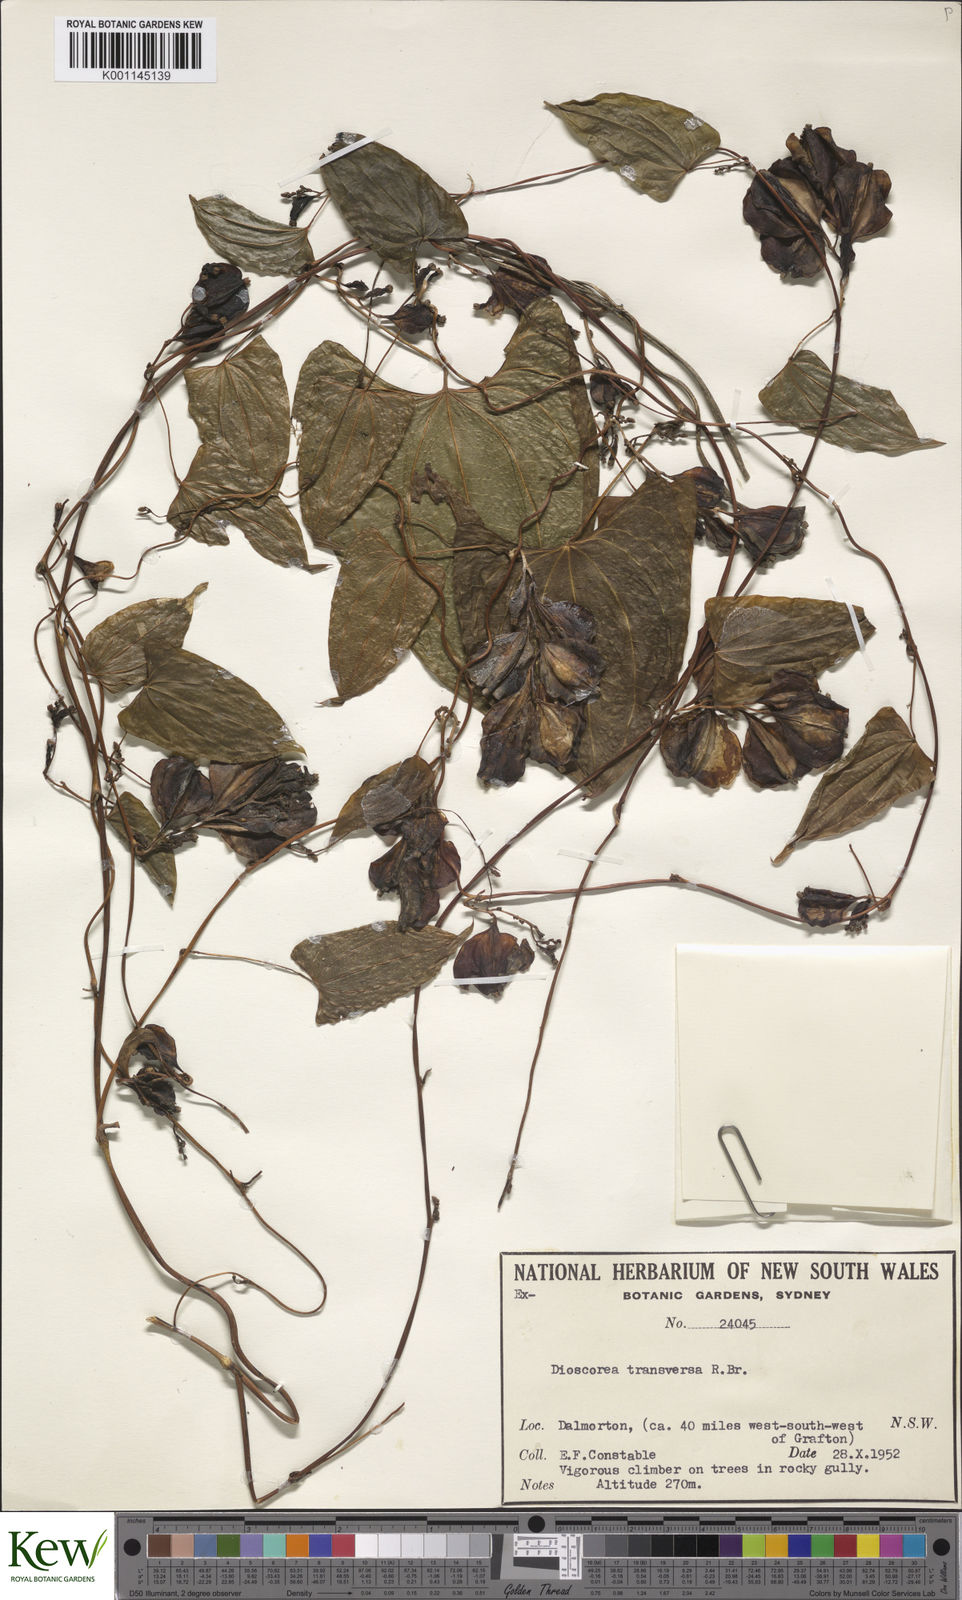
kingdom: Plantae
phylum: Tracheophyta
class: Liliopsida
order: Dioscoreales
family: Dioscoreaceae
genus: Dioscorea
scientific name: Dioscorea transversa
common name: Long yam
